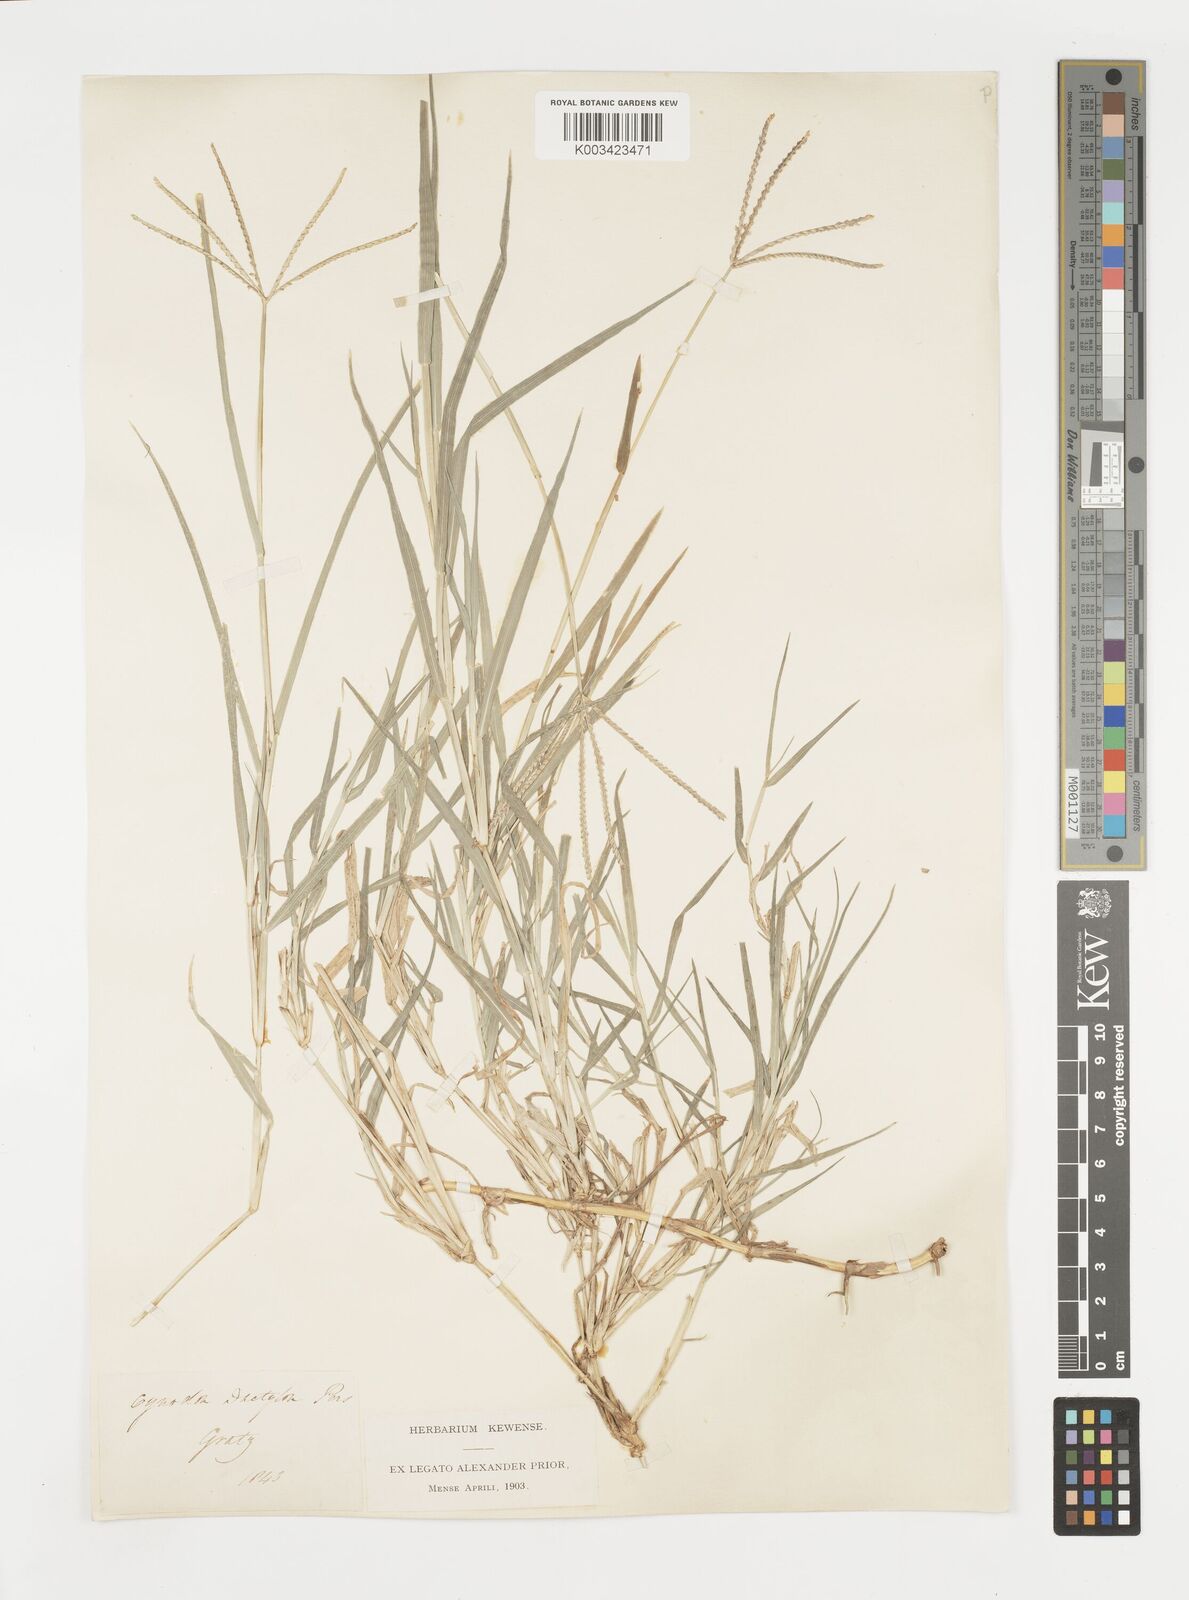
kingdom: Plantae
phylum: Tracheophyta
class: Liliopsida
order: Poales
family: Poaceae
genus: Cynodon
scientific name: Cynodon dactylon
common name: Bermuda grass
